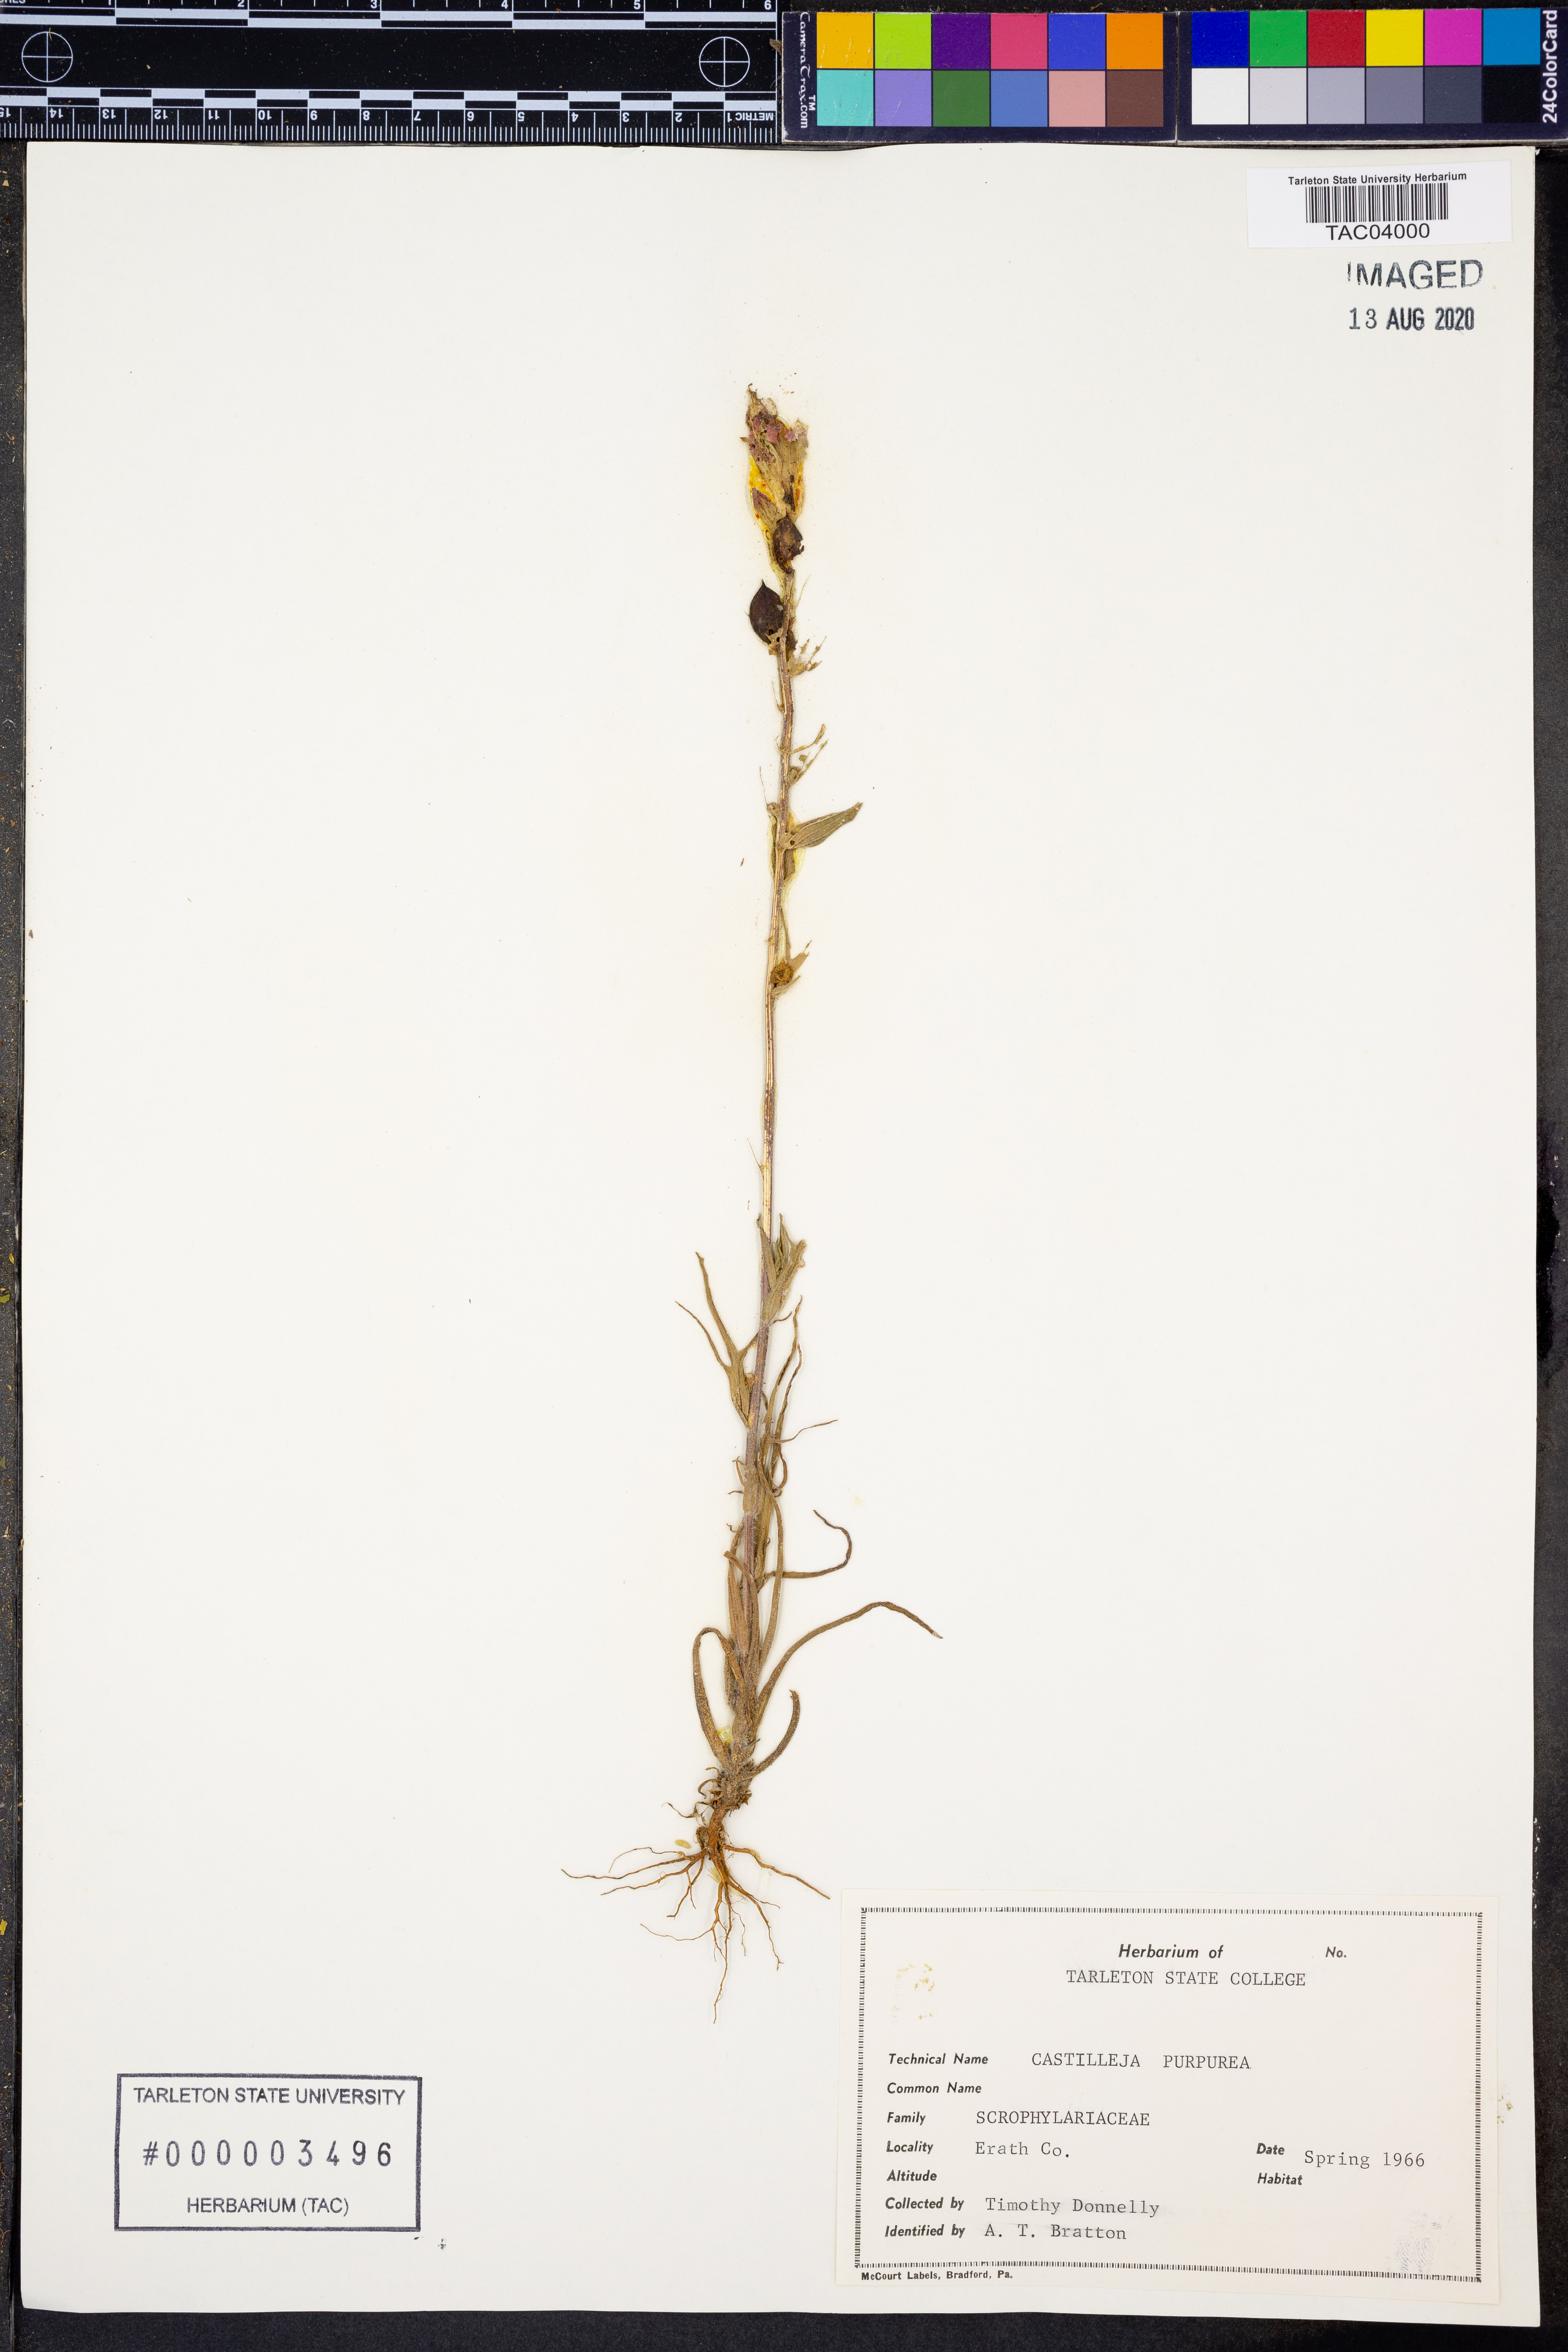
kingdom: Plantae
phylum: Tracheophyta
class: Magnoliopsida
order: Lamiales
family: Orobanchaceae
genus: Castilleja
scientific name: Castilleja purpurea
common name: Plains paintbrush
